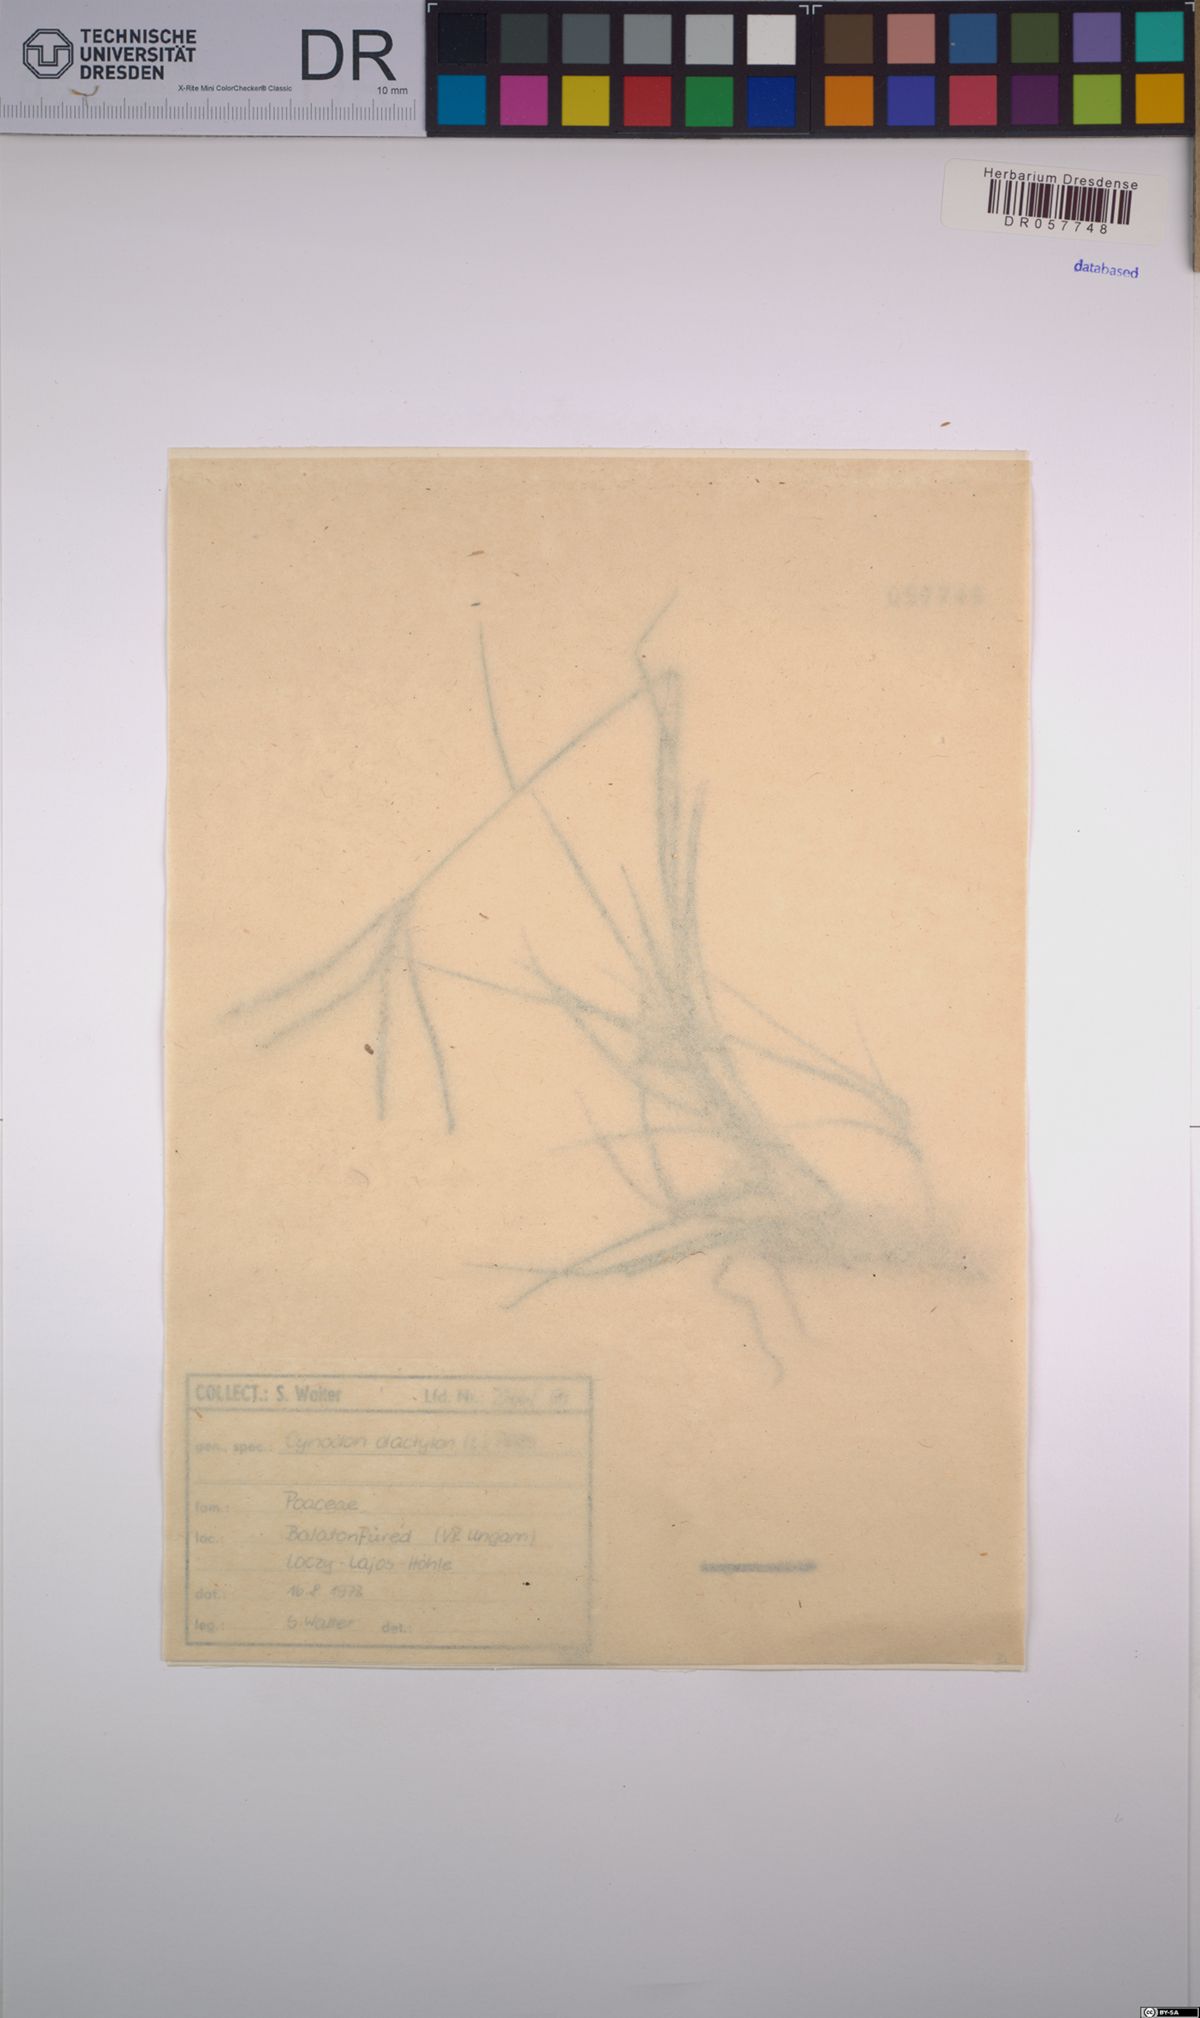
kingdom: Plantae
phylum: Tracheophyta
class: Liliopsida
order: Poales
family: Poaceae
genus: Cynodon
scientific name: Cynodon dactylon
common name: Bermuda grass
